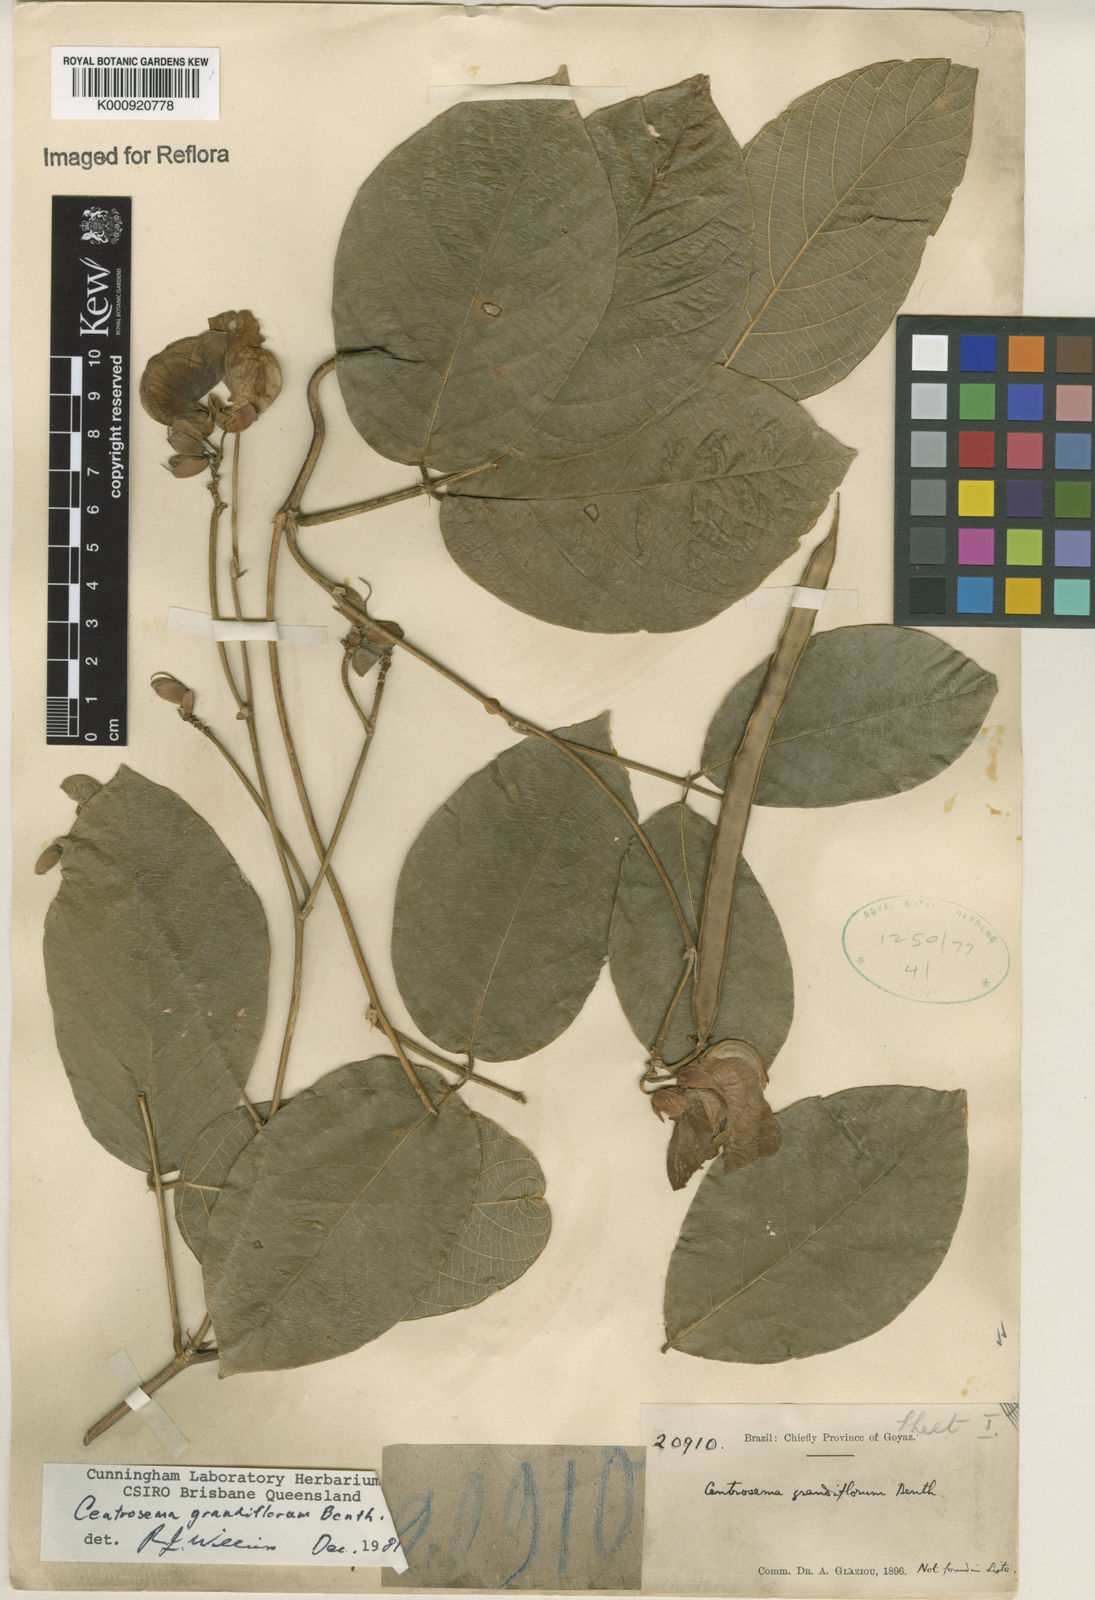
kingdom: Plantae
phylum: Tracheophyta
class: Magnoliopsida
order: Fabales
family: Fabaceae
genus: Centrosema
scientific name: Centrosema grandiflorum
